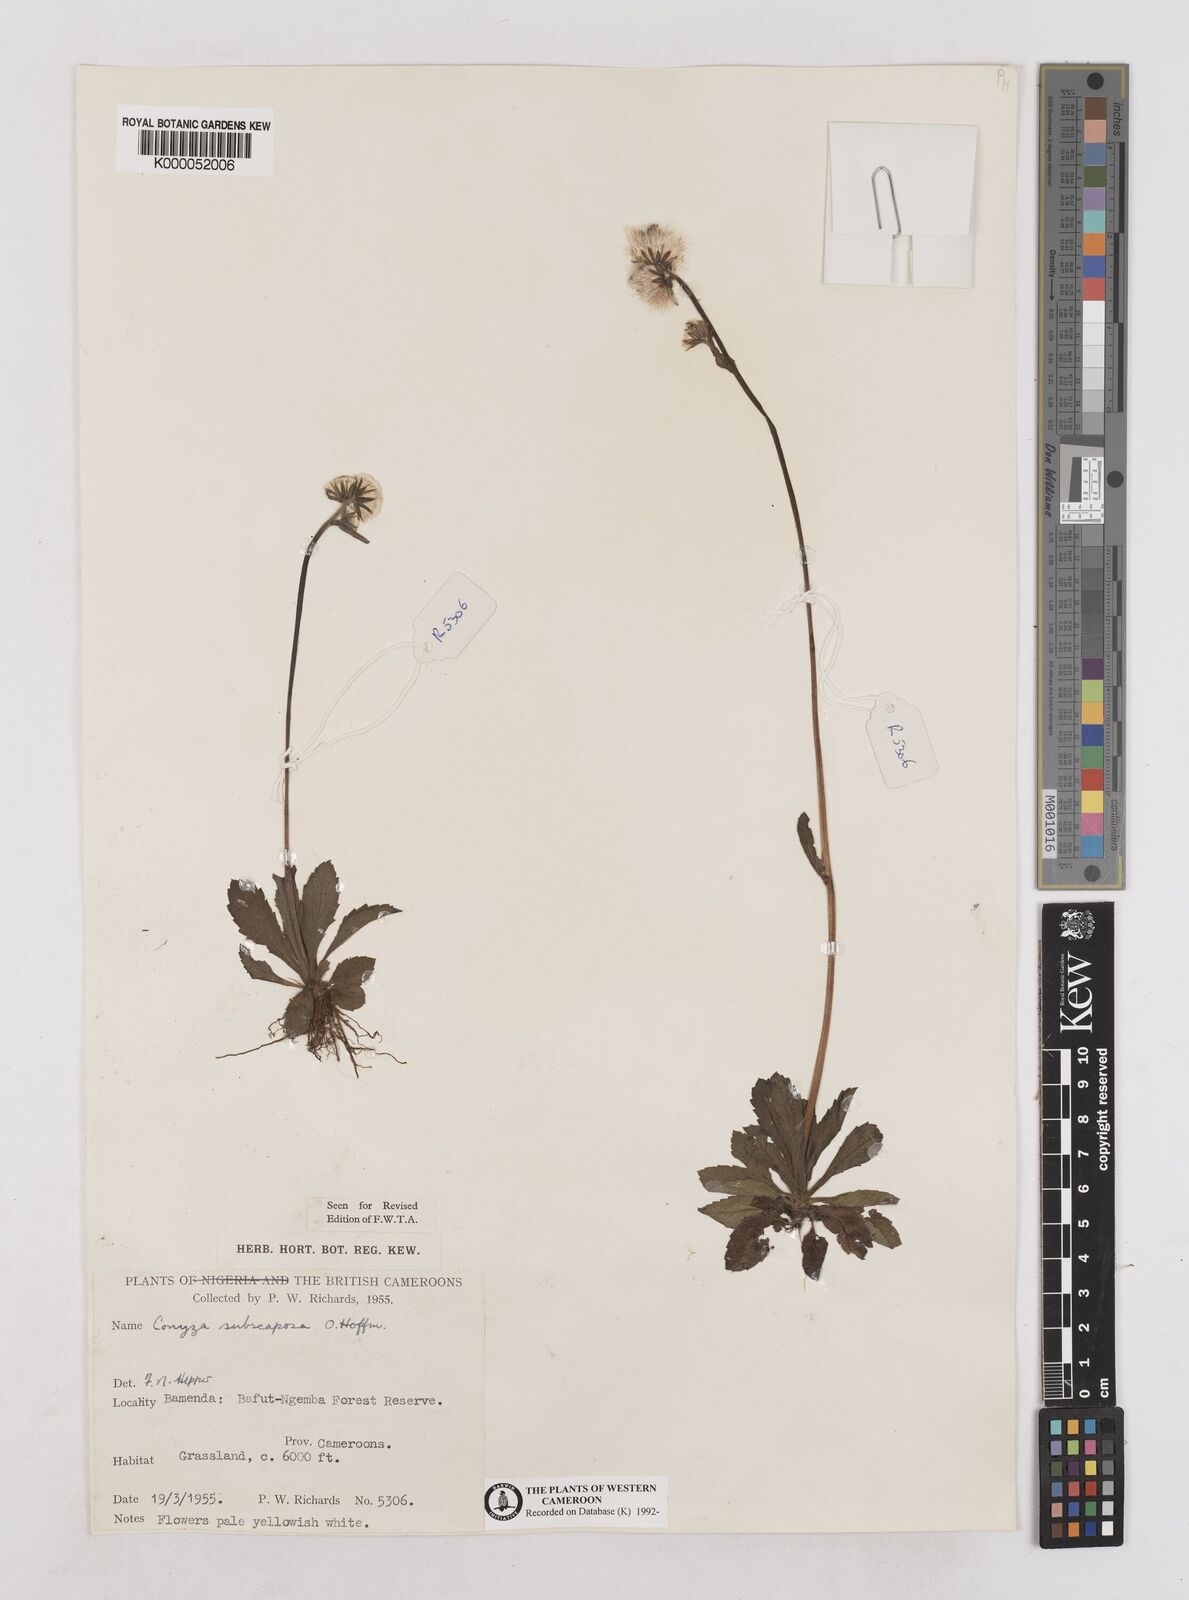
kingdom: Plantae
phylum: Tracheophyta
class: Magnoliopsida
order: Asterales
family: Asteraceae
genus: Eschenbachia
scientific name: Eschenbachia subscaposa
